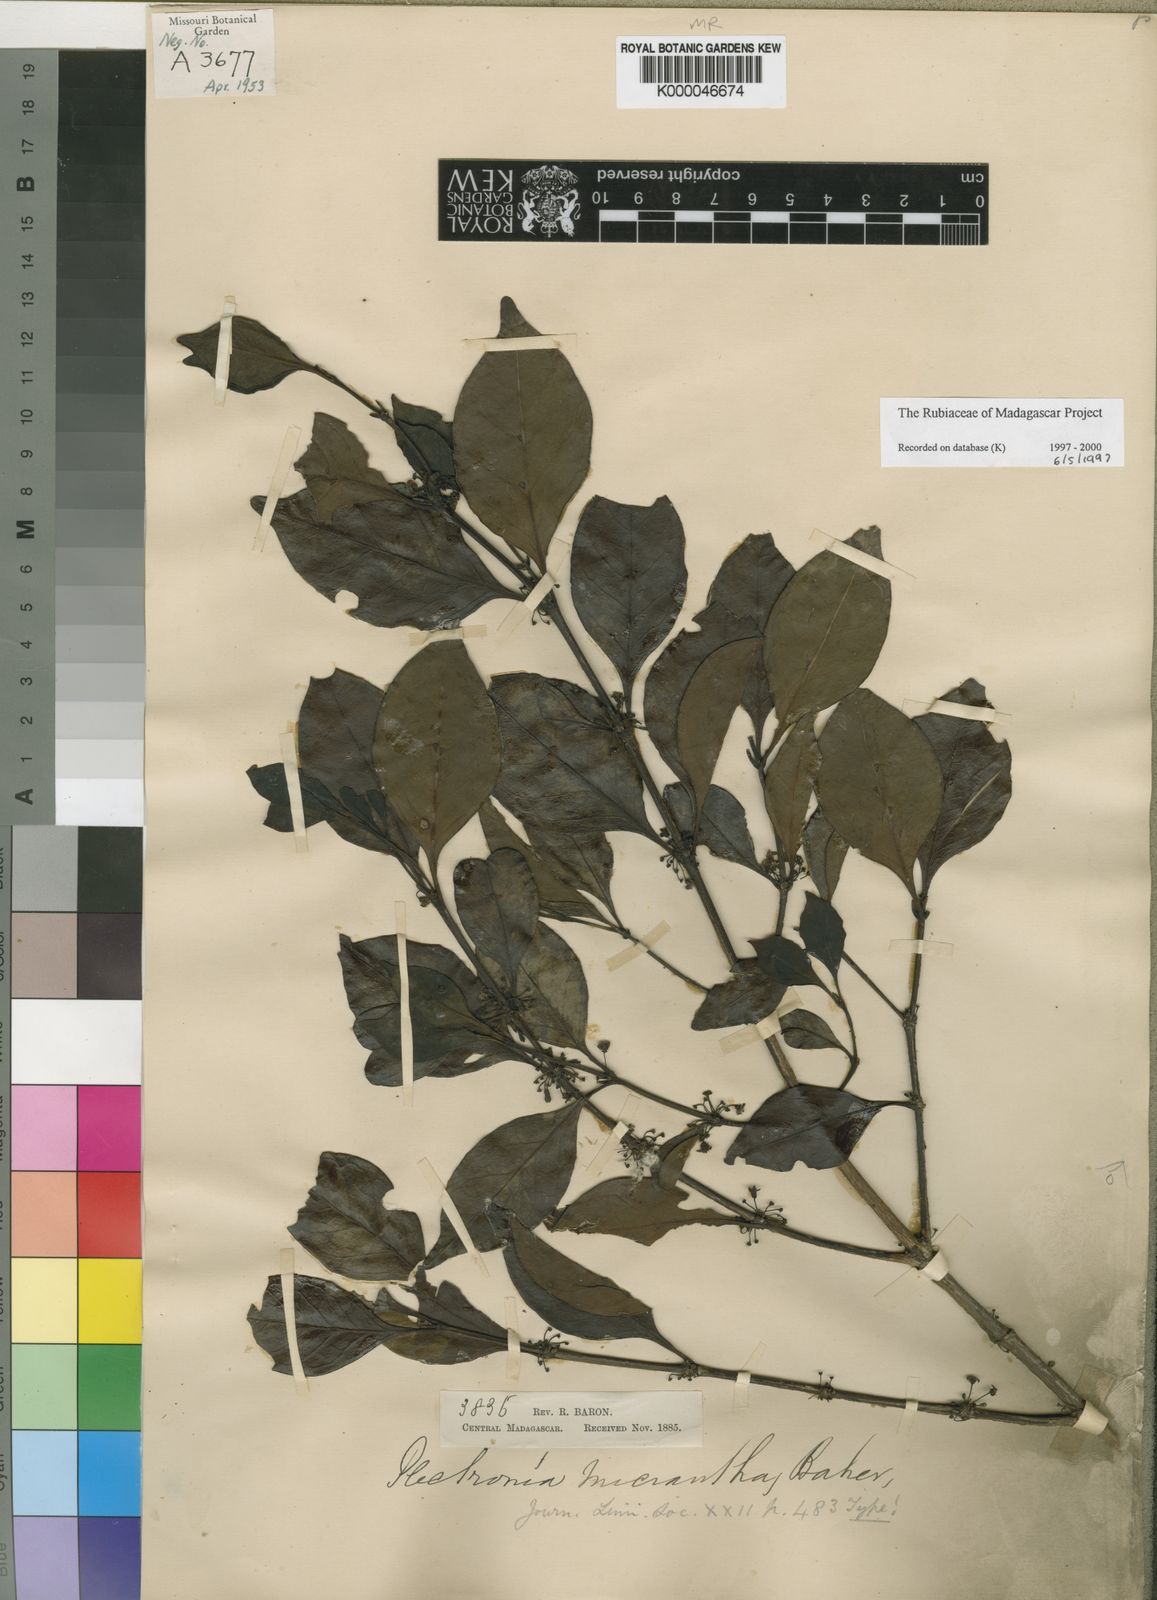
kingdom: Plantae
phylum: Tracheophyta
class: Magnoliopsida
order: Gentianales
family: Rubiaceae
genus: Canthium
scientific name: Canthium
